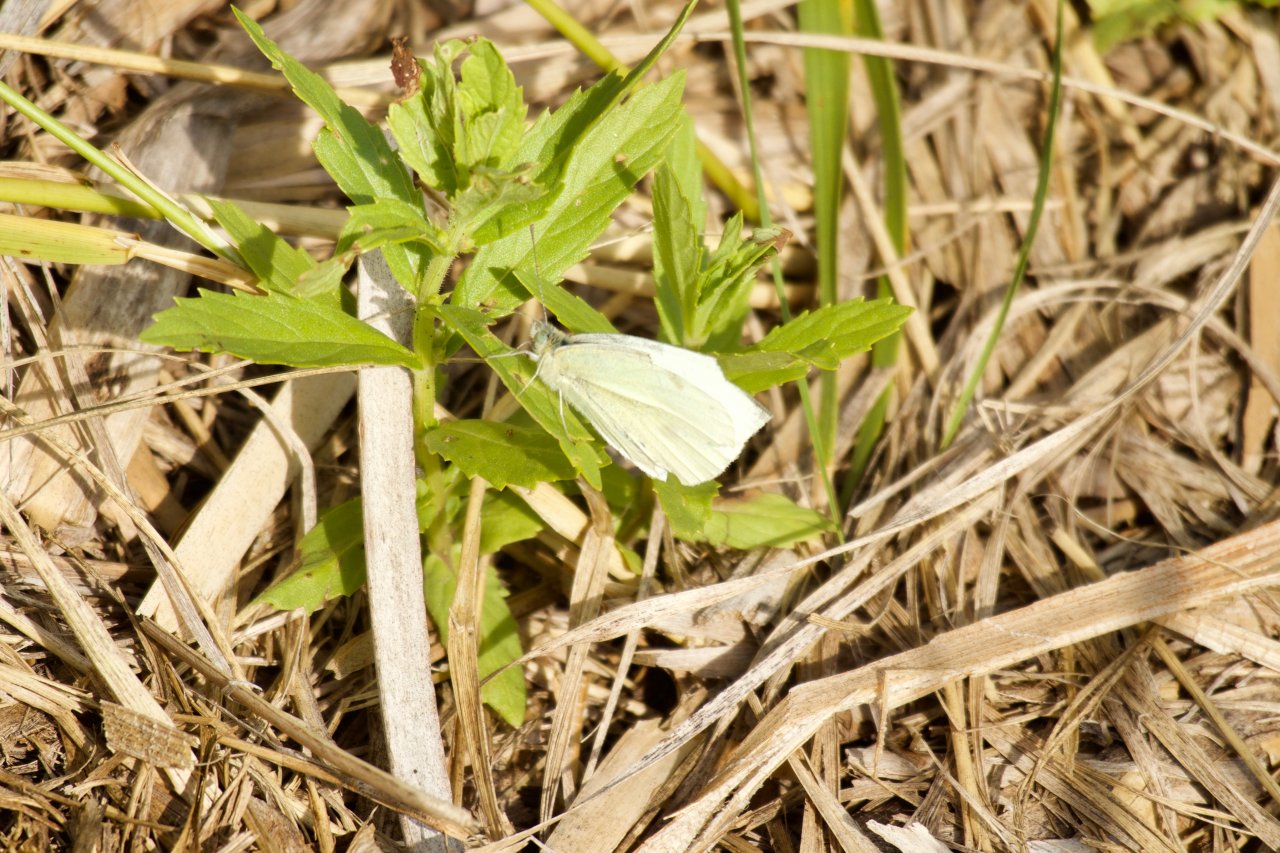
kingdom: Animalia
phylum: Arthropoda
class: Insecta
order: Lepidoptera
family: Pieridae
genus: Pieris
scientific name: Pieris rapae
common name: Cabbage White
